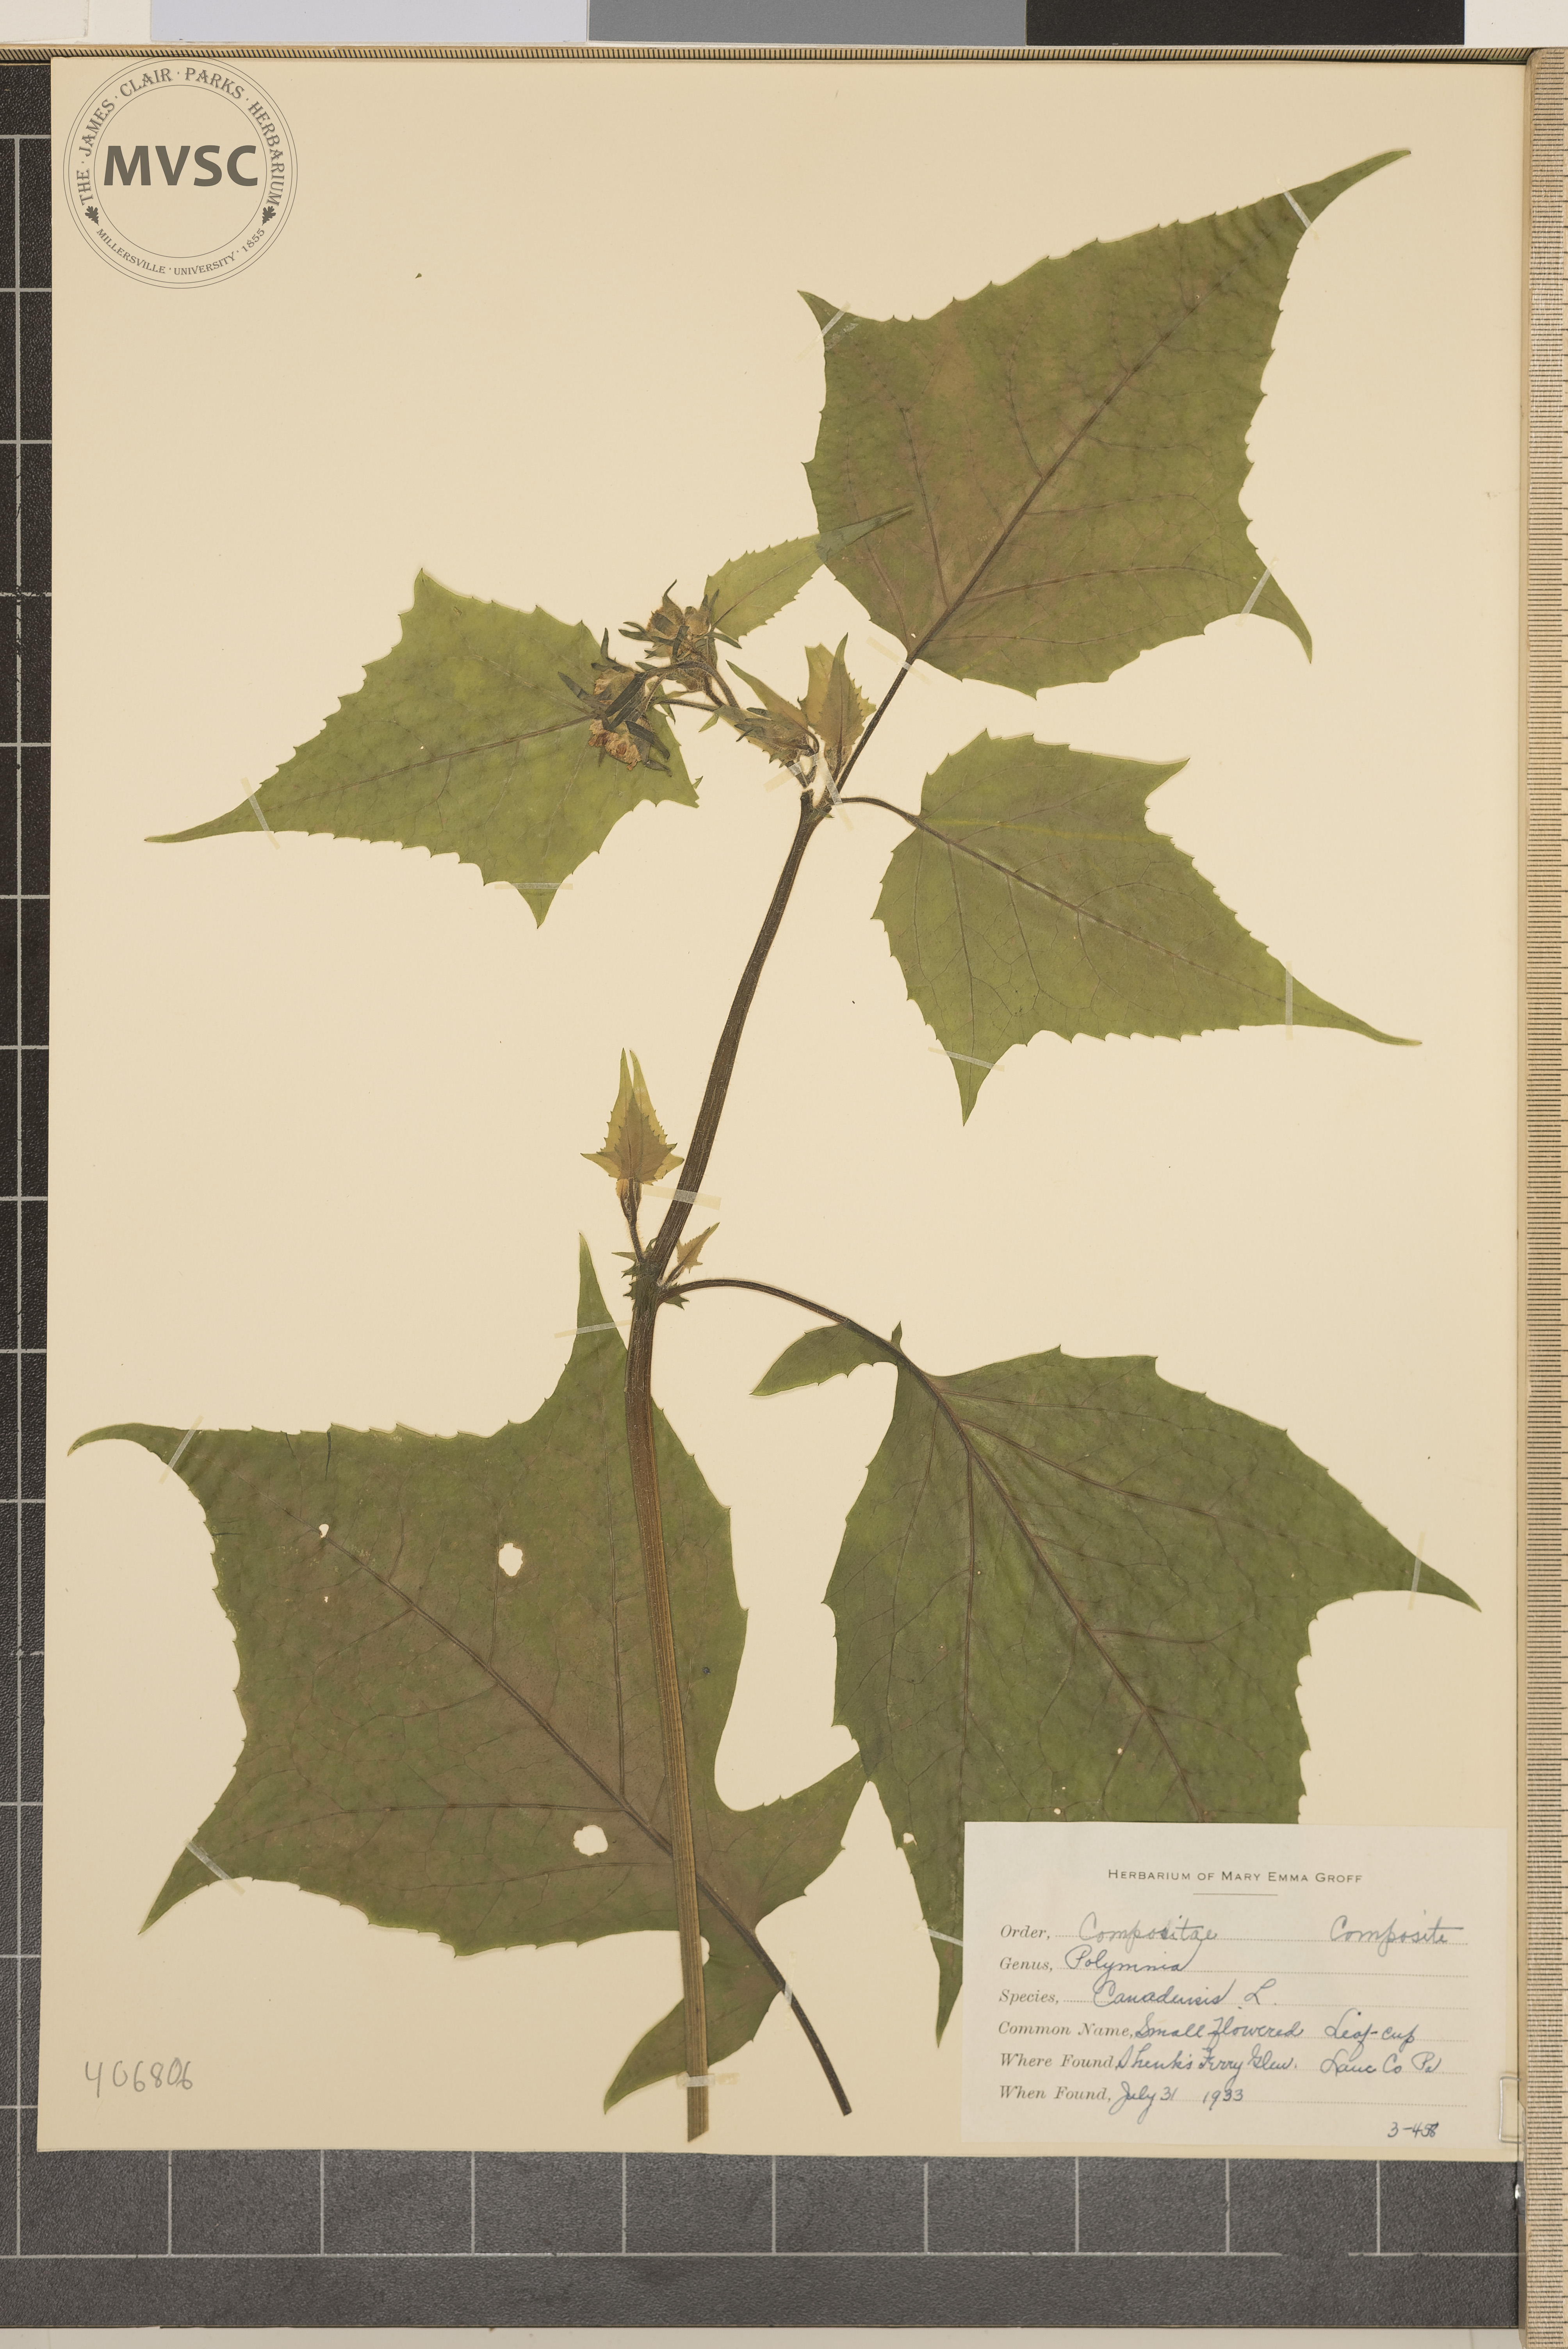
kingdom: Plantae
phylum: Tracheophyta
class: Magnoliopsida
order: Asterales
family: Asteraceae
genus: Polymnia
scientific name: Polymnia canadensis
